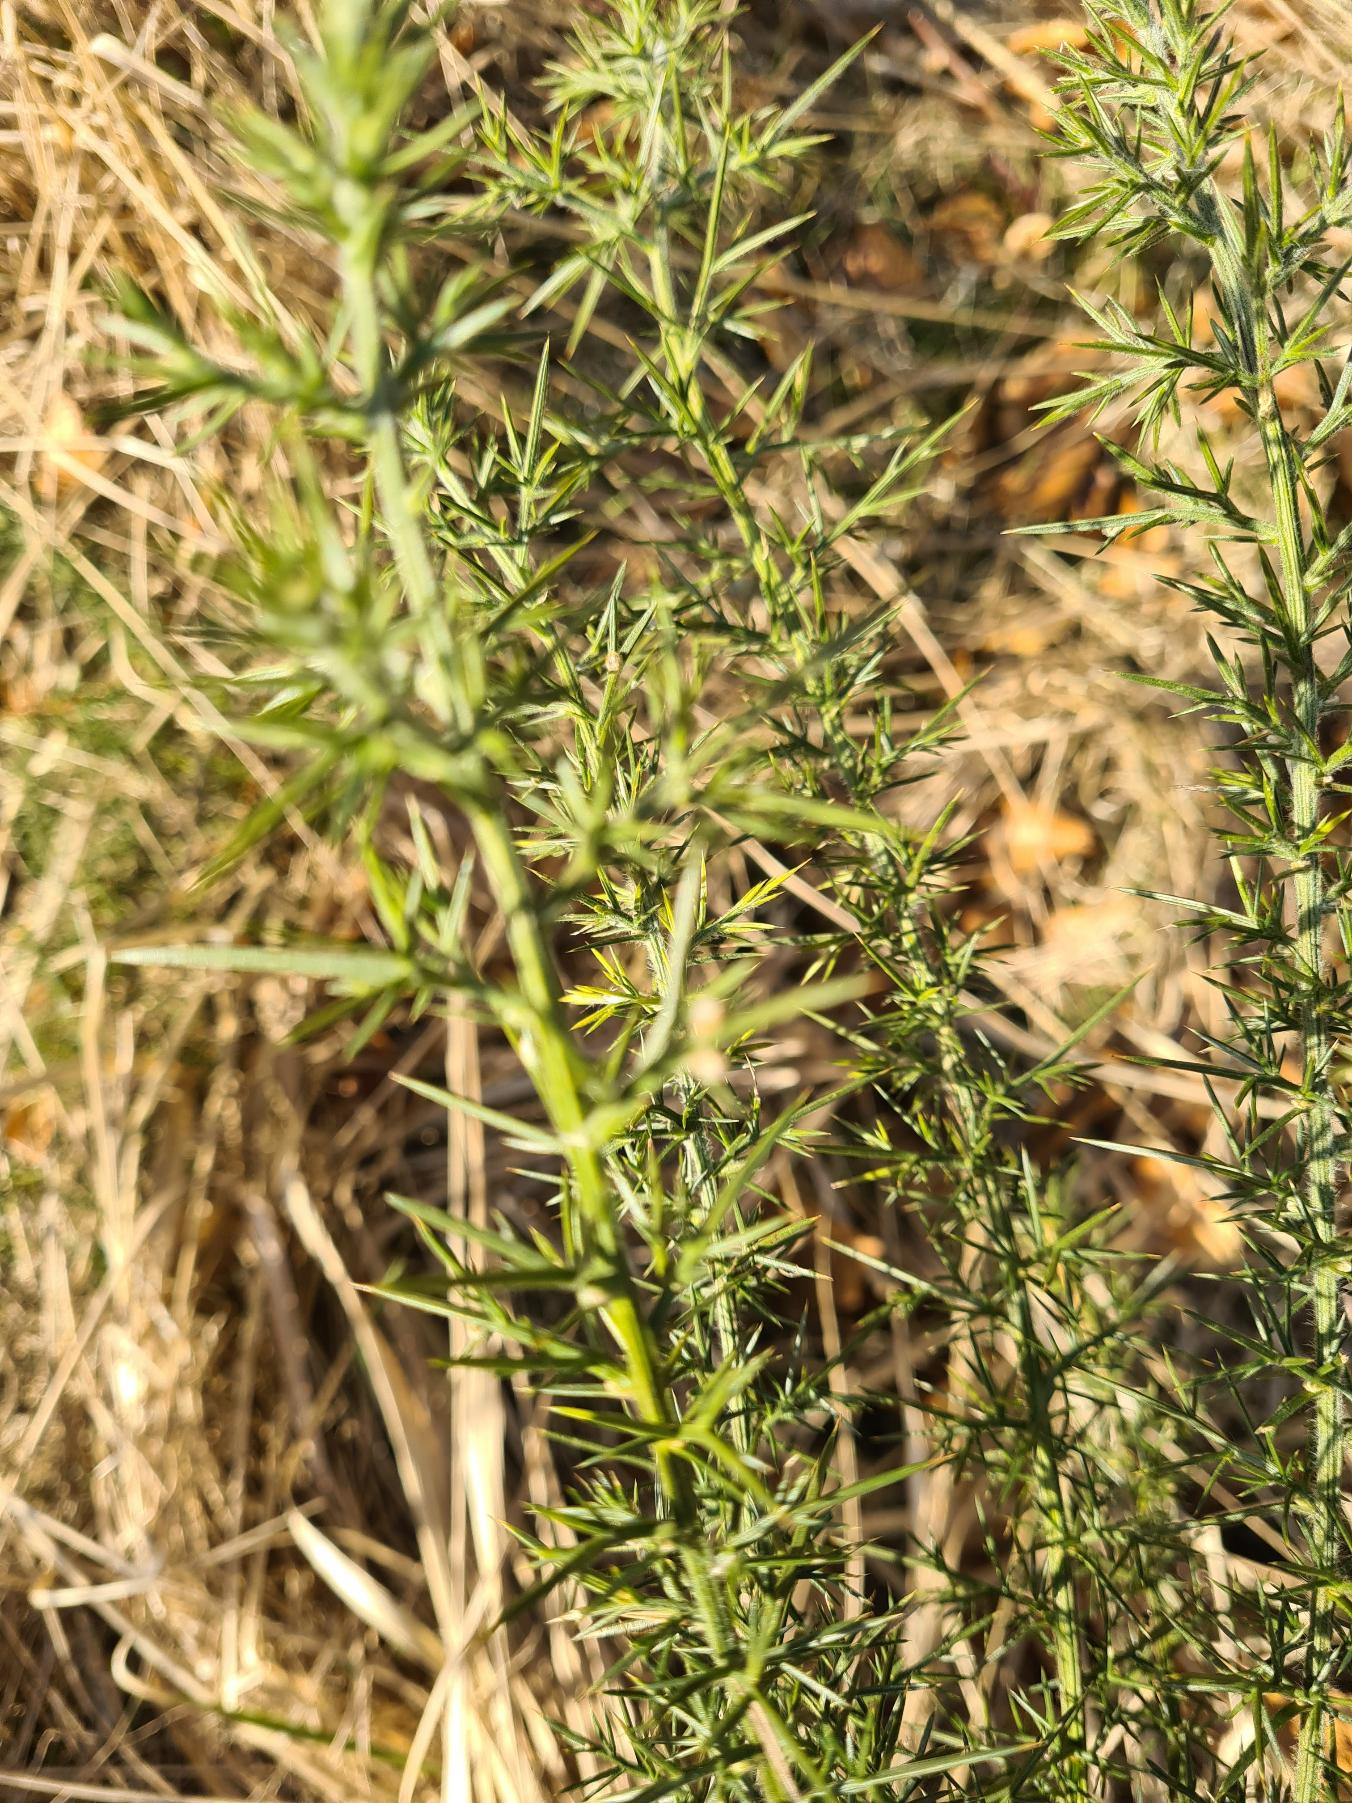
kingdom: Plantae
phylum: Tracheophyta
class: Magnoliopsida
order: Fabales
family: Fabaceae
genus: Ulex
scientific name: Ulex europaeus
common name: Tornblad
